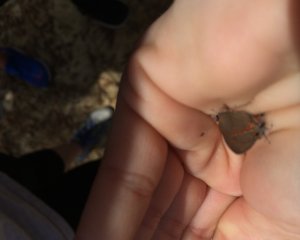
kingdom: Animalia
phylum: Arthropoda
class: Insecta
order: Lepidoptera
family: Lycaenidae
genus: Calycopis
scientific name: Calycopis cecrops
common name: Red-banded Hairstreak
